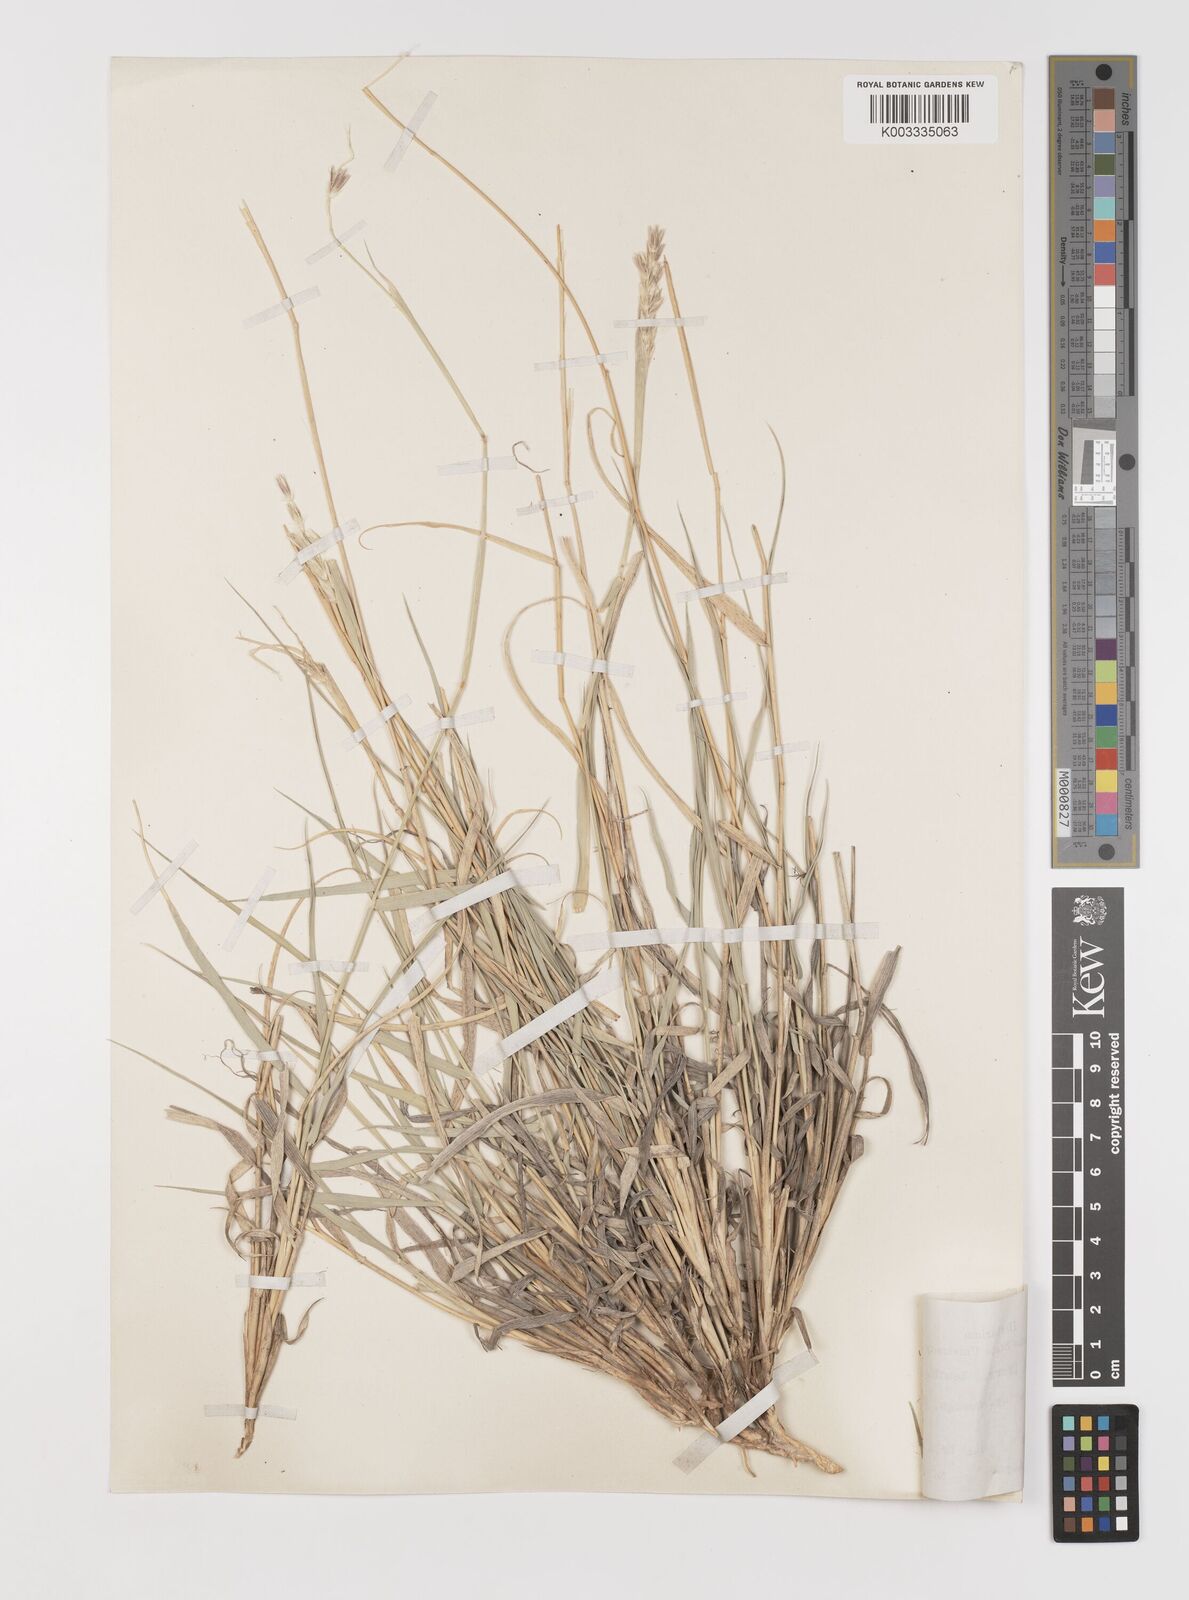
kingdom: Plantae
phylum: Tracheophyta
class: Liliopsida
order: Poales
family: Poaceae
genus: Hilaria
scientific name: Hilaria jamesii
